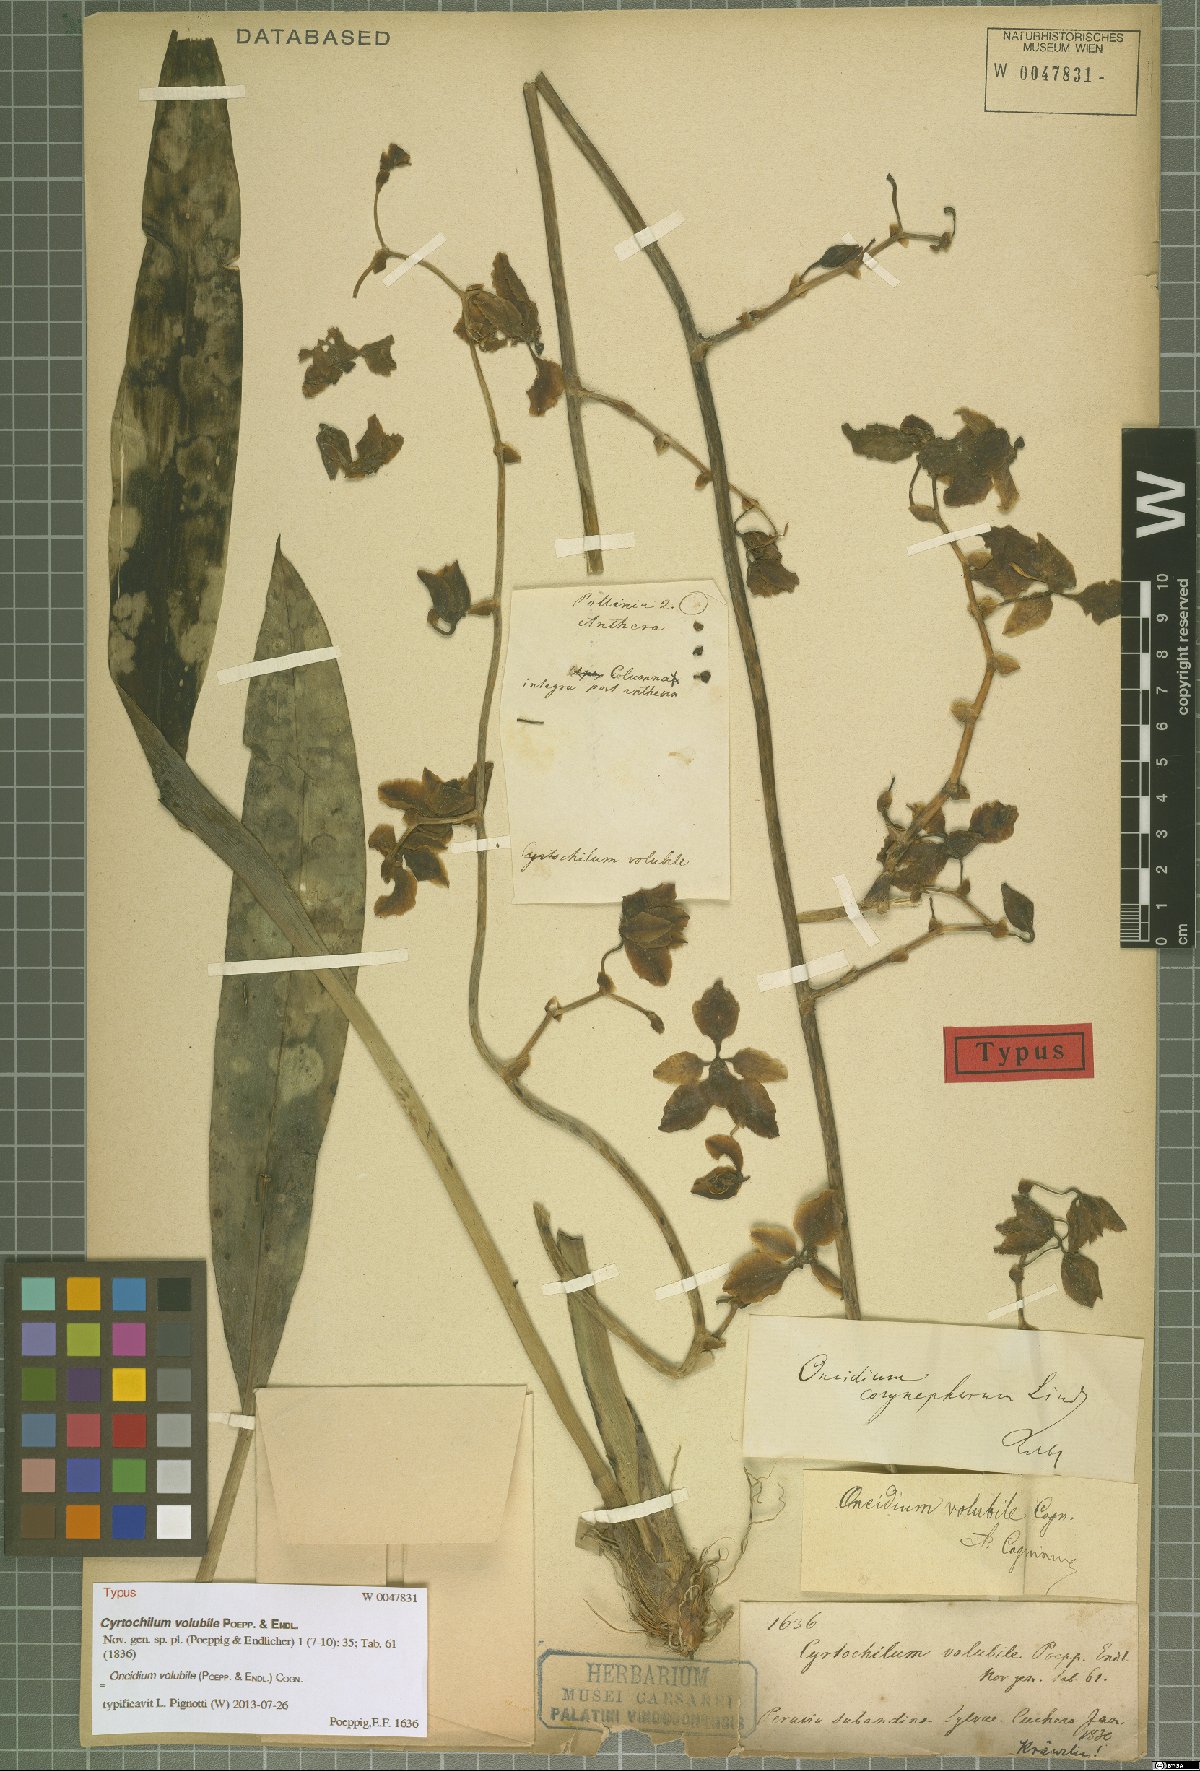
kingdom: Plantae
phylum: Tracheophyta
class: Liliopsida
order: Asparagales
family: Orchidaceae
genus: Cyrtochilum
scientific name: Cyrtochilum volubile
